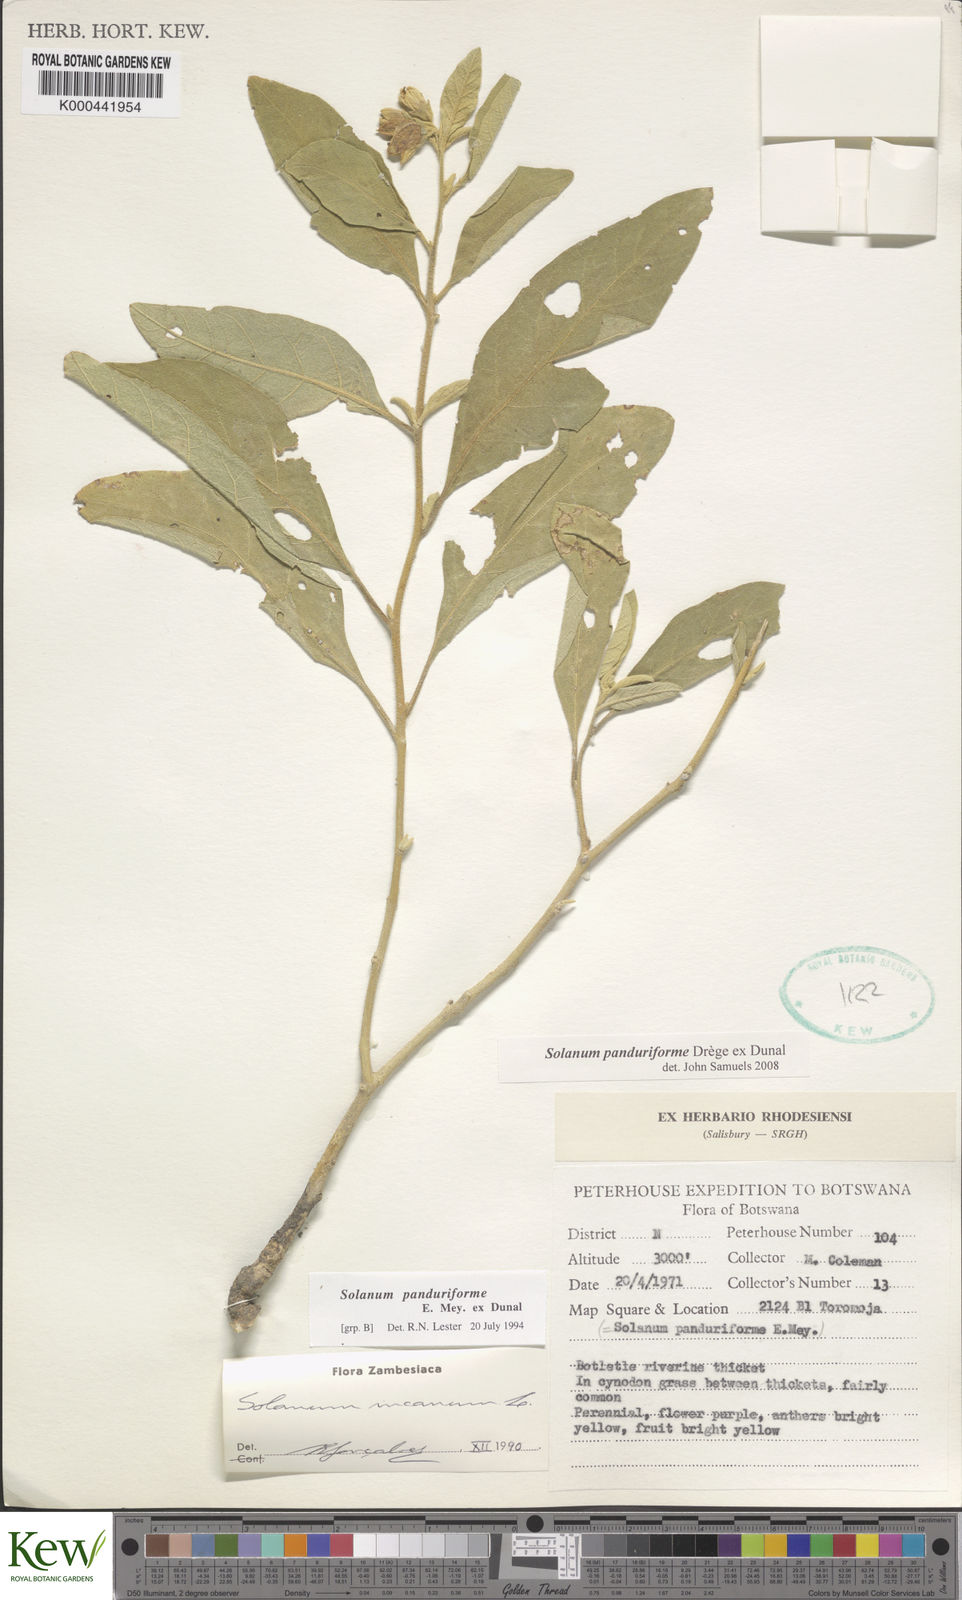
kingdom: Plantae
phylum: Tracheophyta
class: Magnoliopsida
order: Solanales
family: Solanaceae
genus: Solanum
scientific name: Solanum campylacanthum
